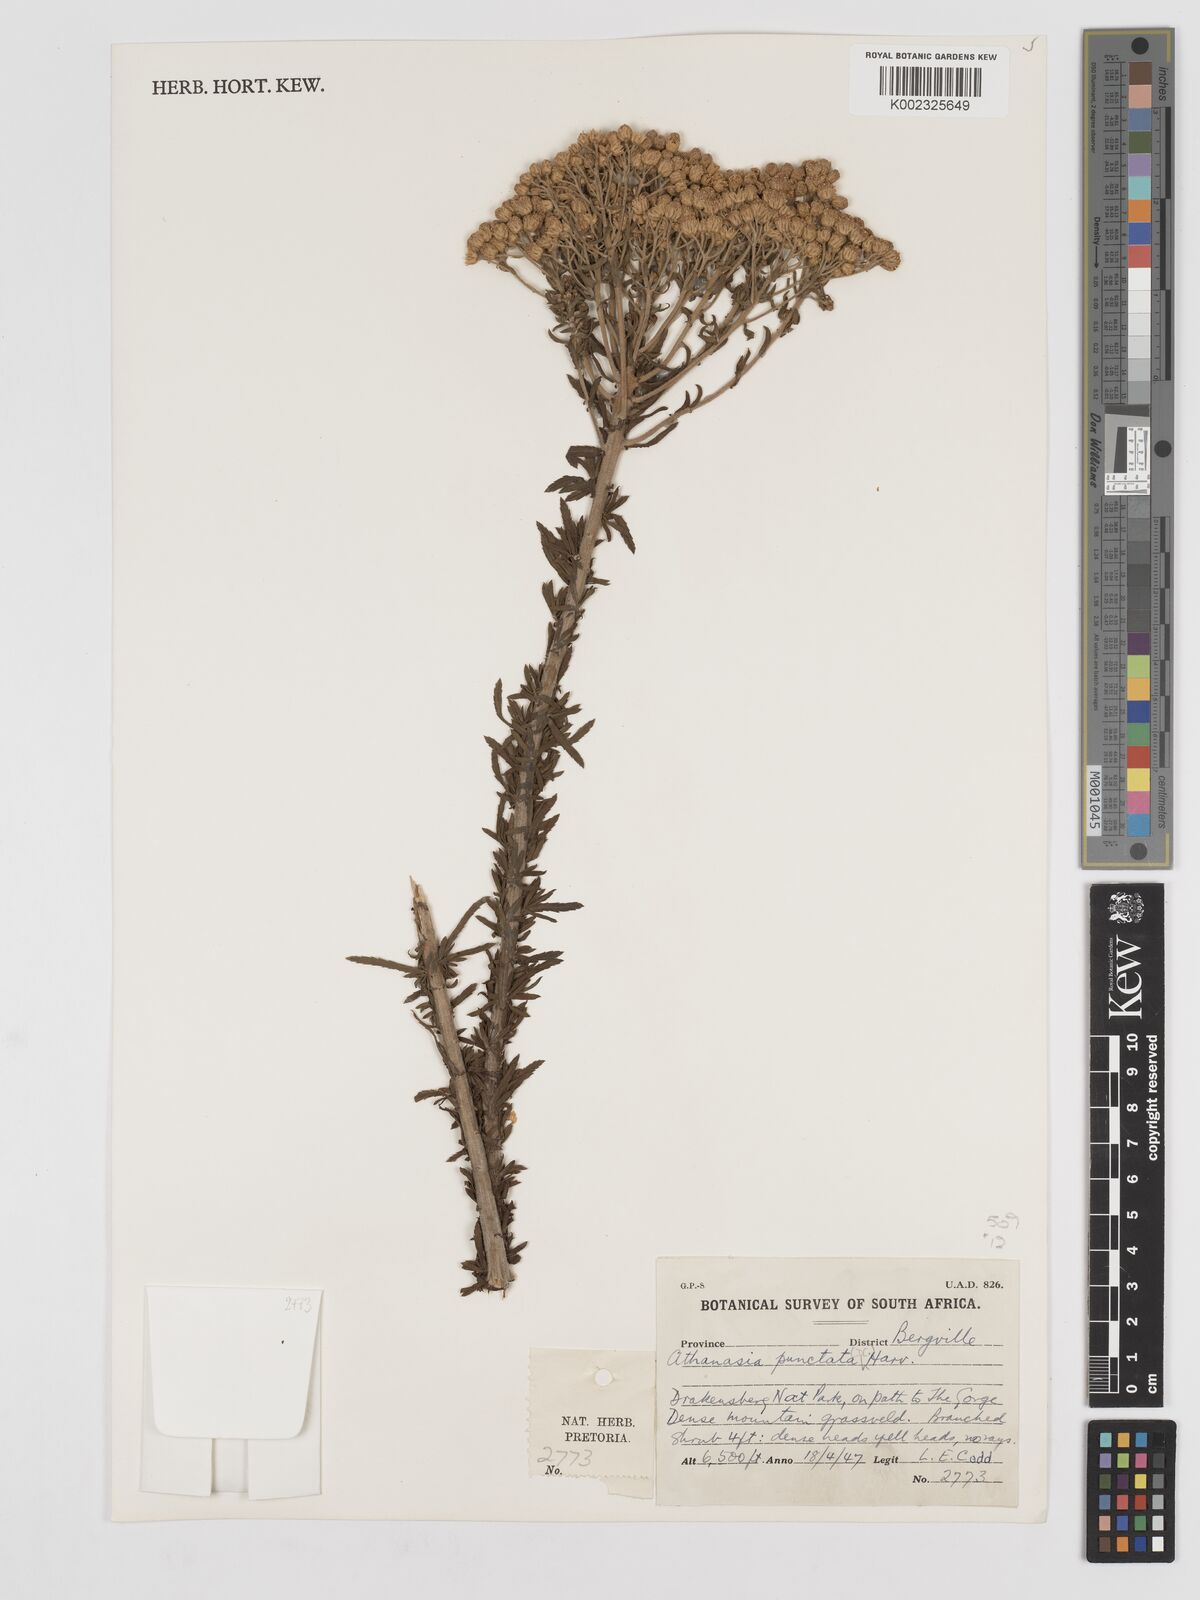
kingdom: Plantae
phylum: Tracheophyta
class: Magnoliopsida
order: Asterales
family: Asteraceae
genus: Inulanthera
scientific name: Inulanthera dregeana
